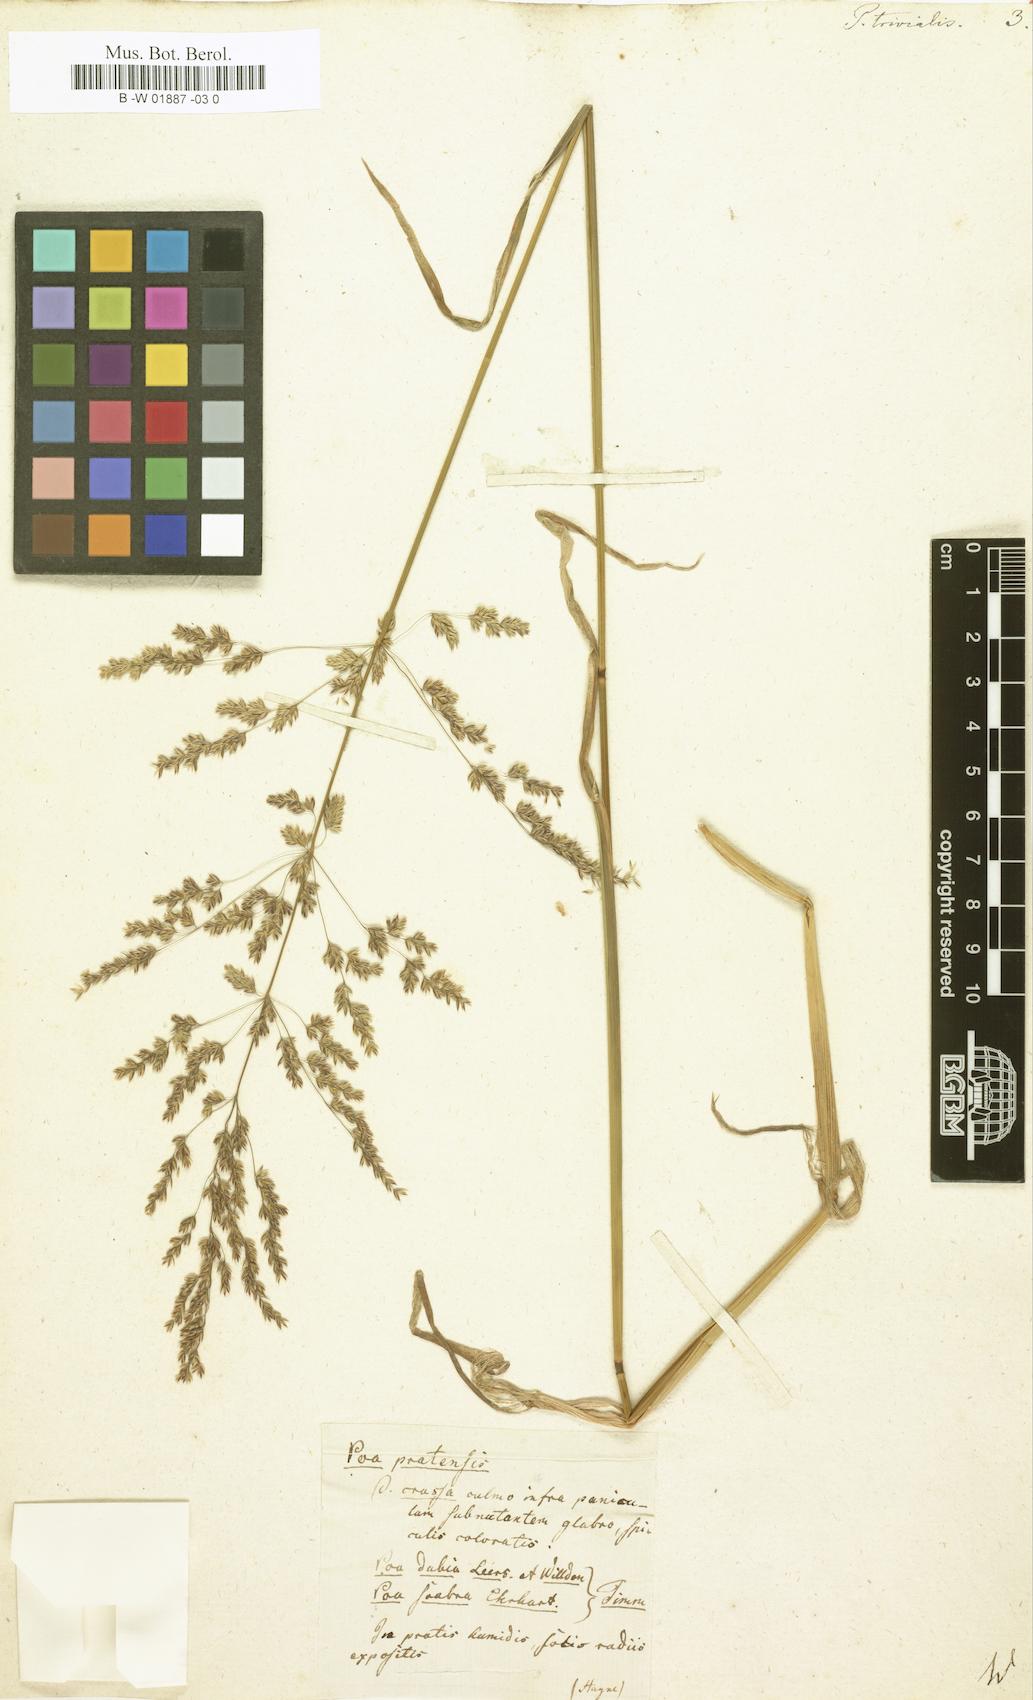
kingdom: Plantae
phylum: Tracheophyta
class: Liliopsida
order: Poales
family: Poaceae
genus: Poa
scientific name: Poa trivialis
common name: Rough bluegrass
